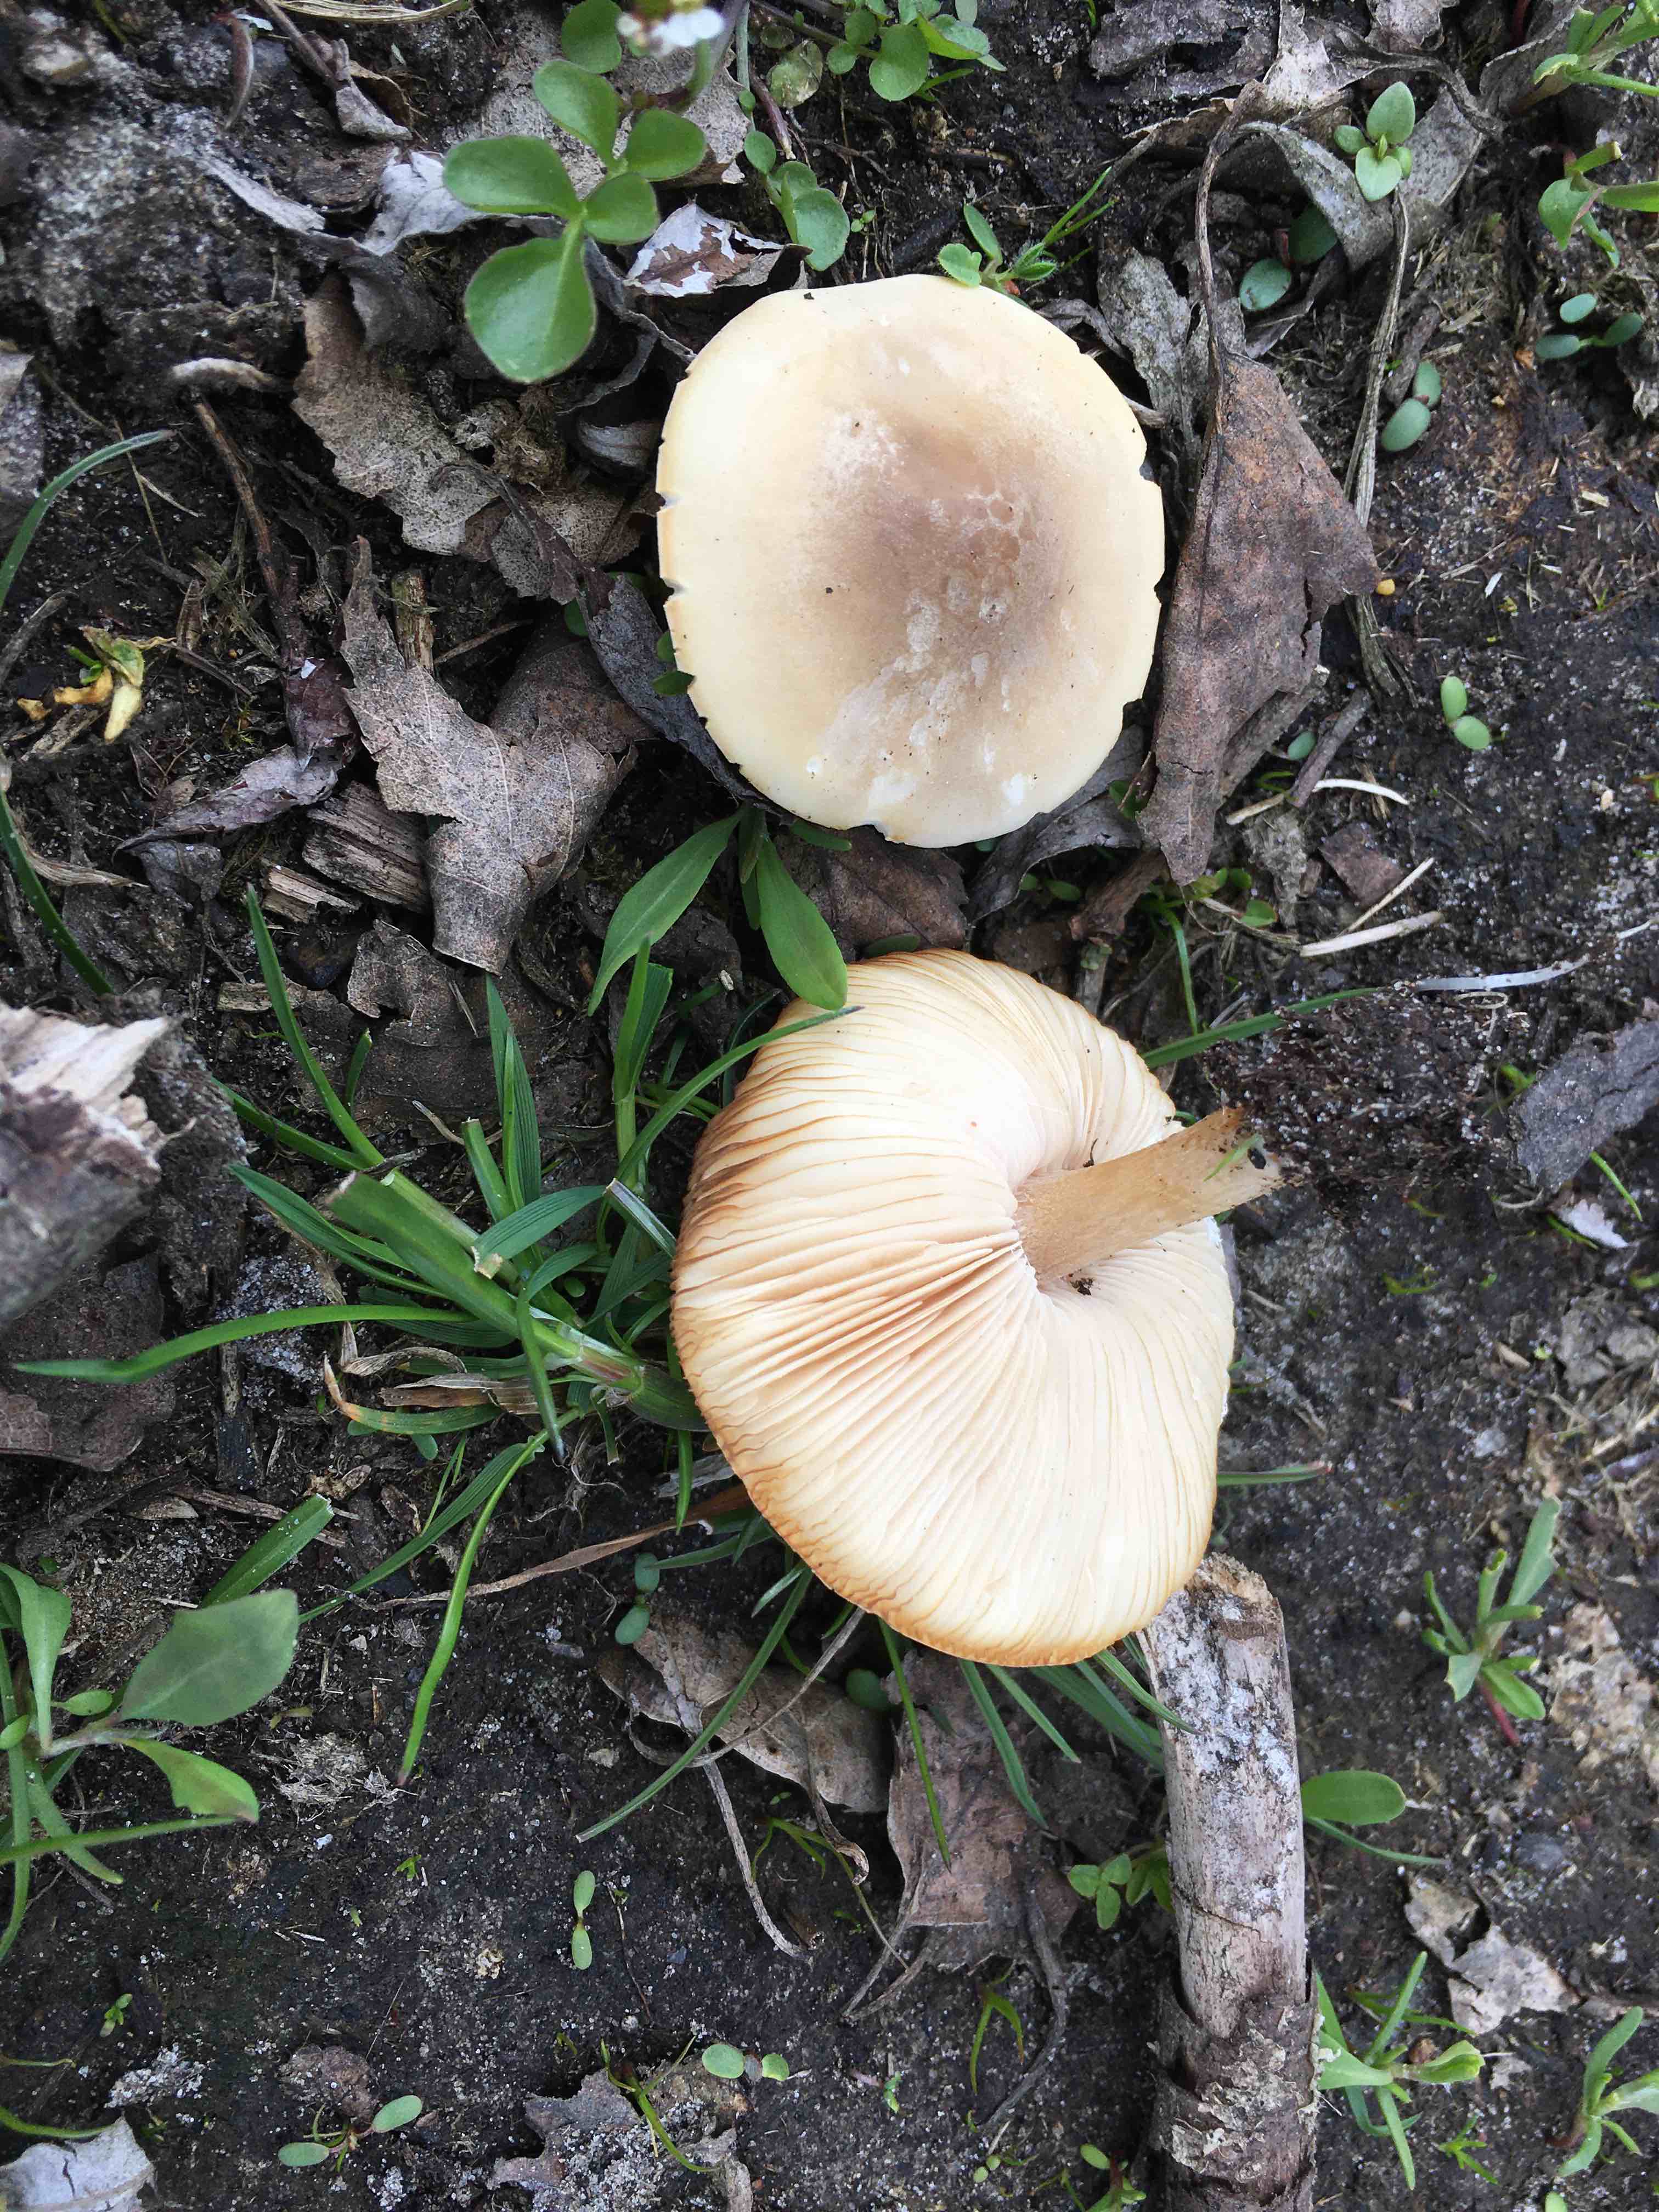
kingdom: Fungi
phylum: Basidiomycota
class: Agaricomycetes
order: Agaricales
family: Tricholomataceae
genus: Melanoleuca
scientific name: Melanoleuca cognata
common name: gyldengrå munkehat
